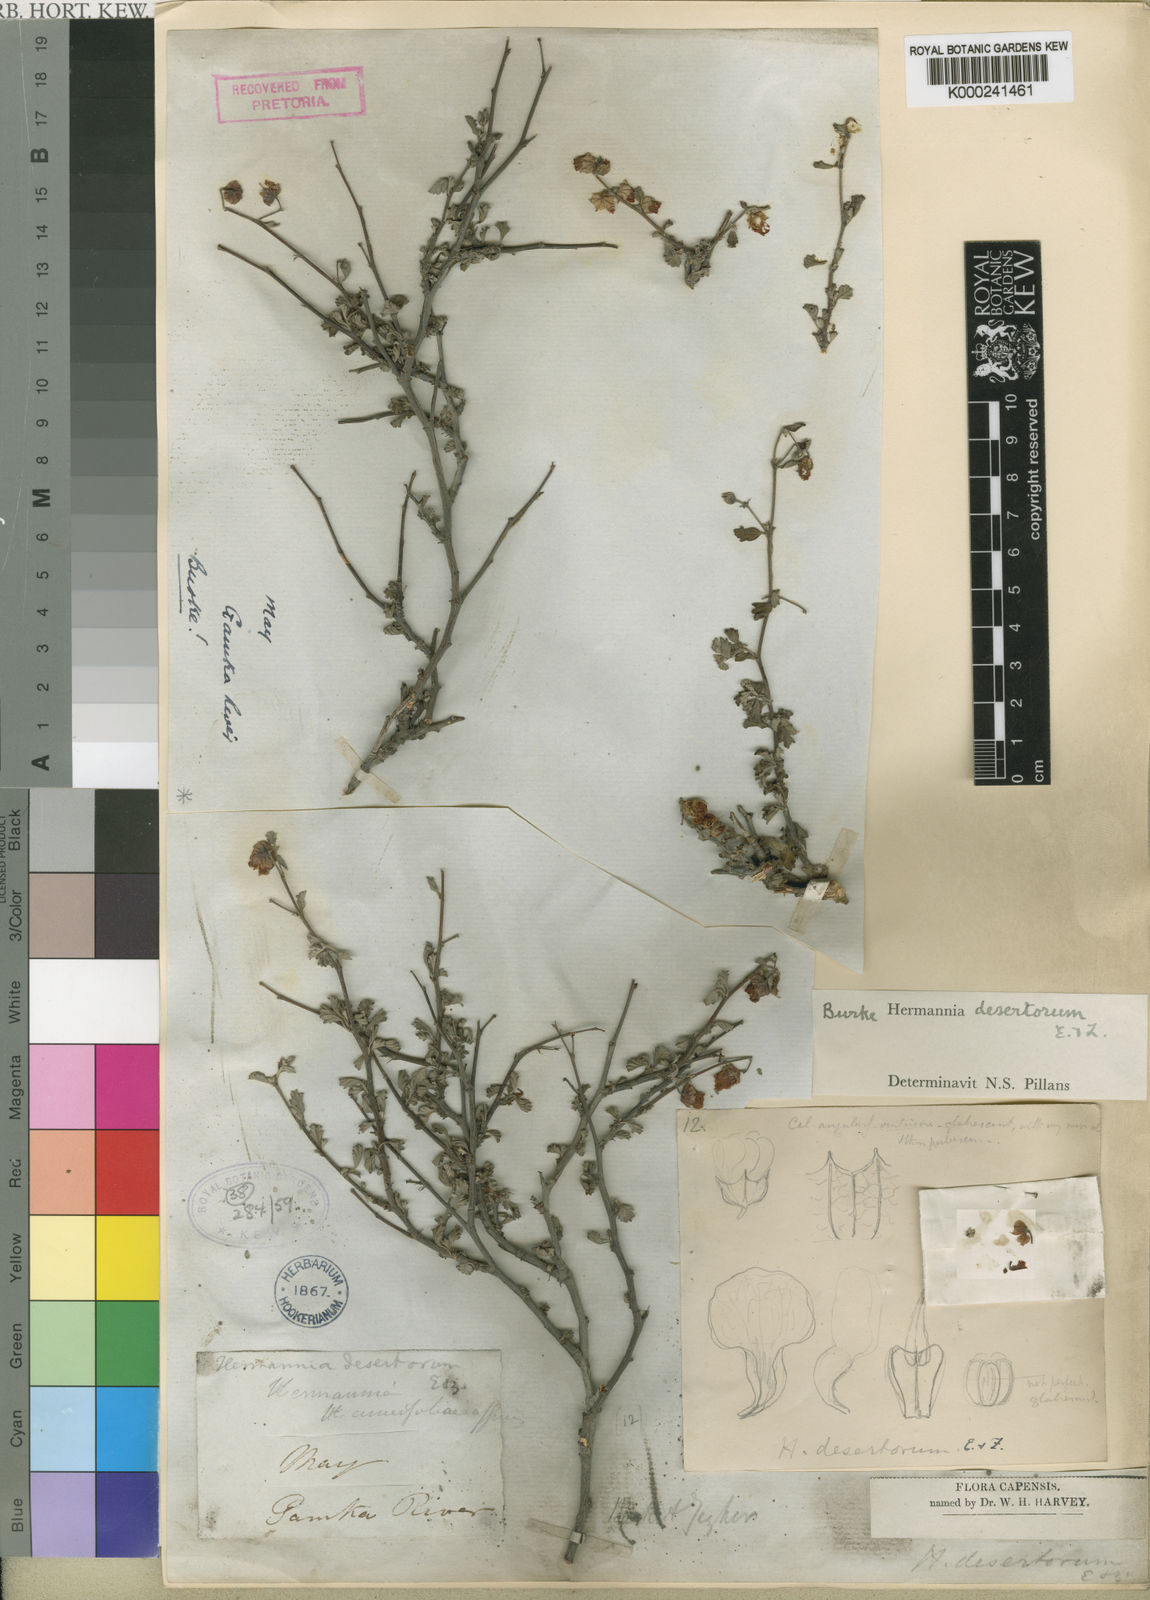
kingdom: Plantae
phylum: Tracheophyta
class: Magnoliopsida
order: Malvales
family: Malvaceae
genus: Hermannia
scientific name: Hermannia desertorum
